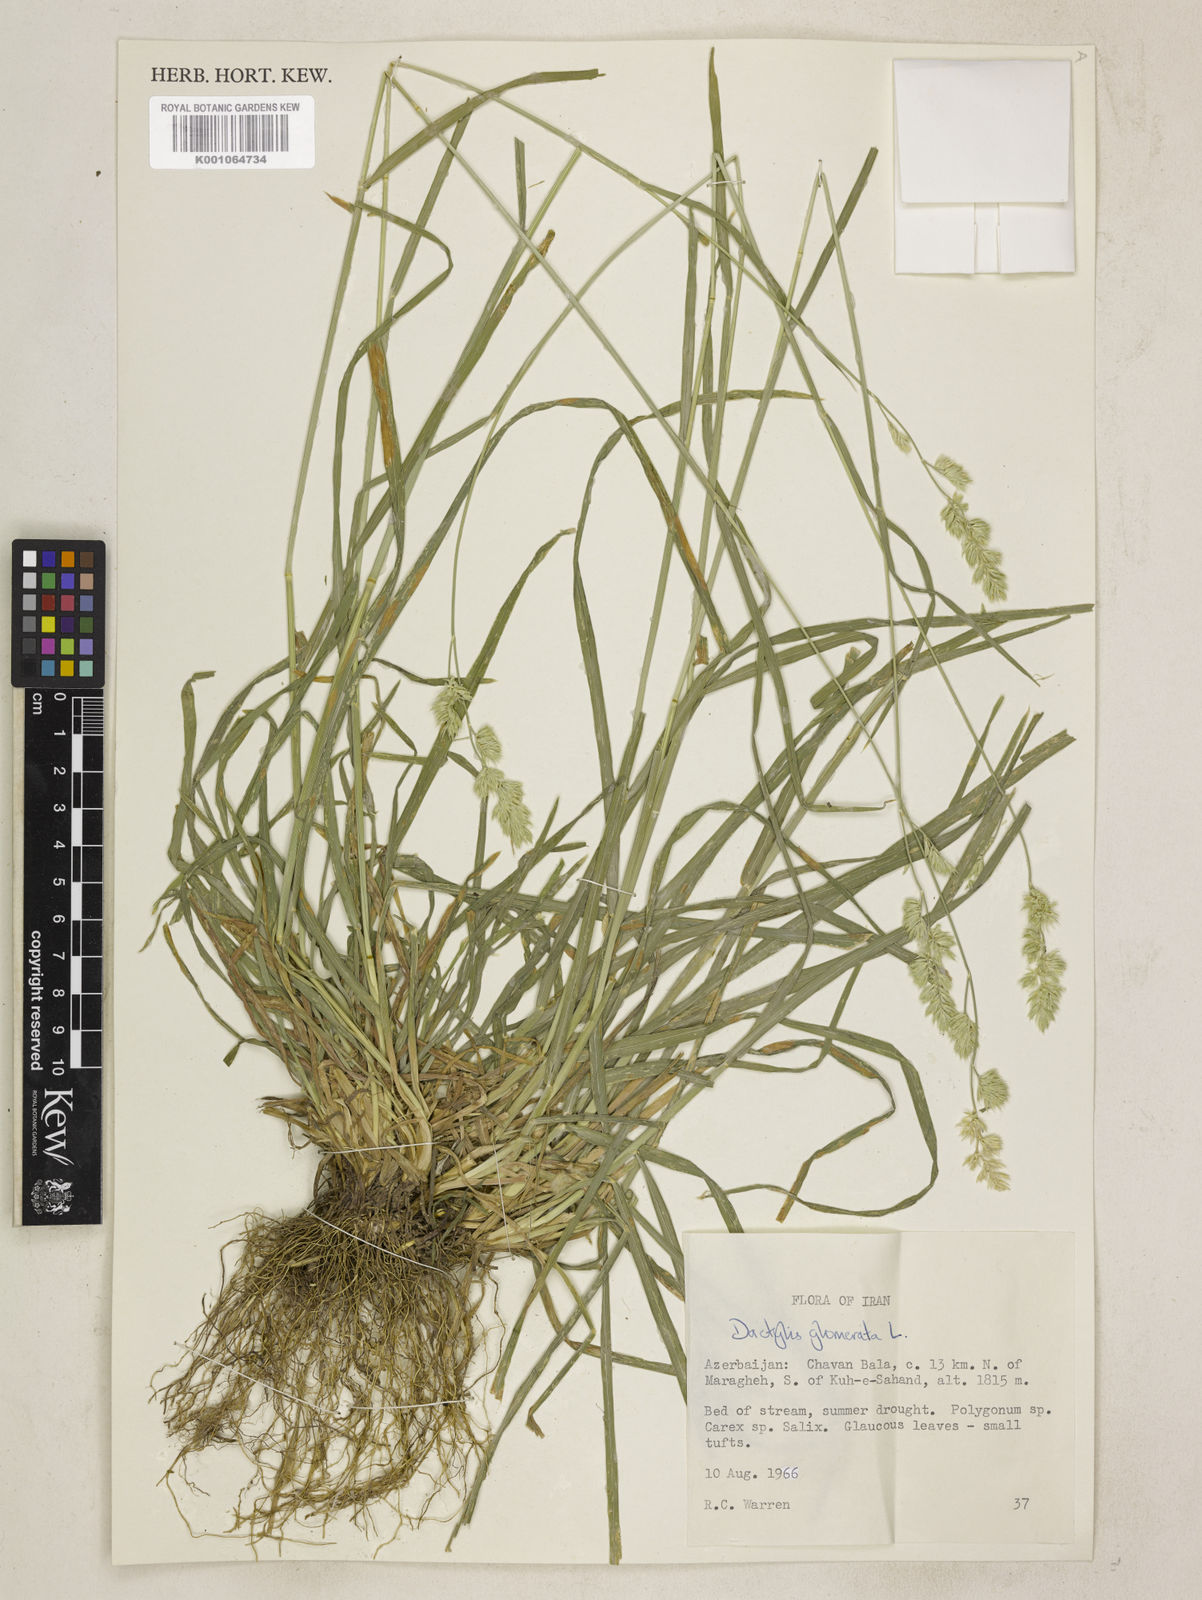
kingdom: Plantae
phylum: Tracheophyta
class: Liliopsida
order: Poales
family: Poaceae
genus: Dactylis
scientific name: Dactylis glomerata
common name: Orchardgrass
